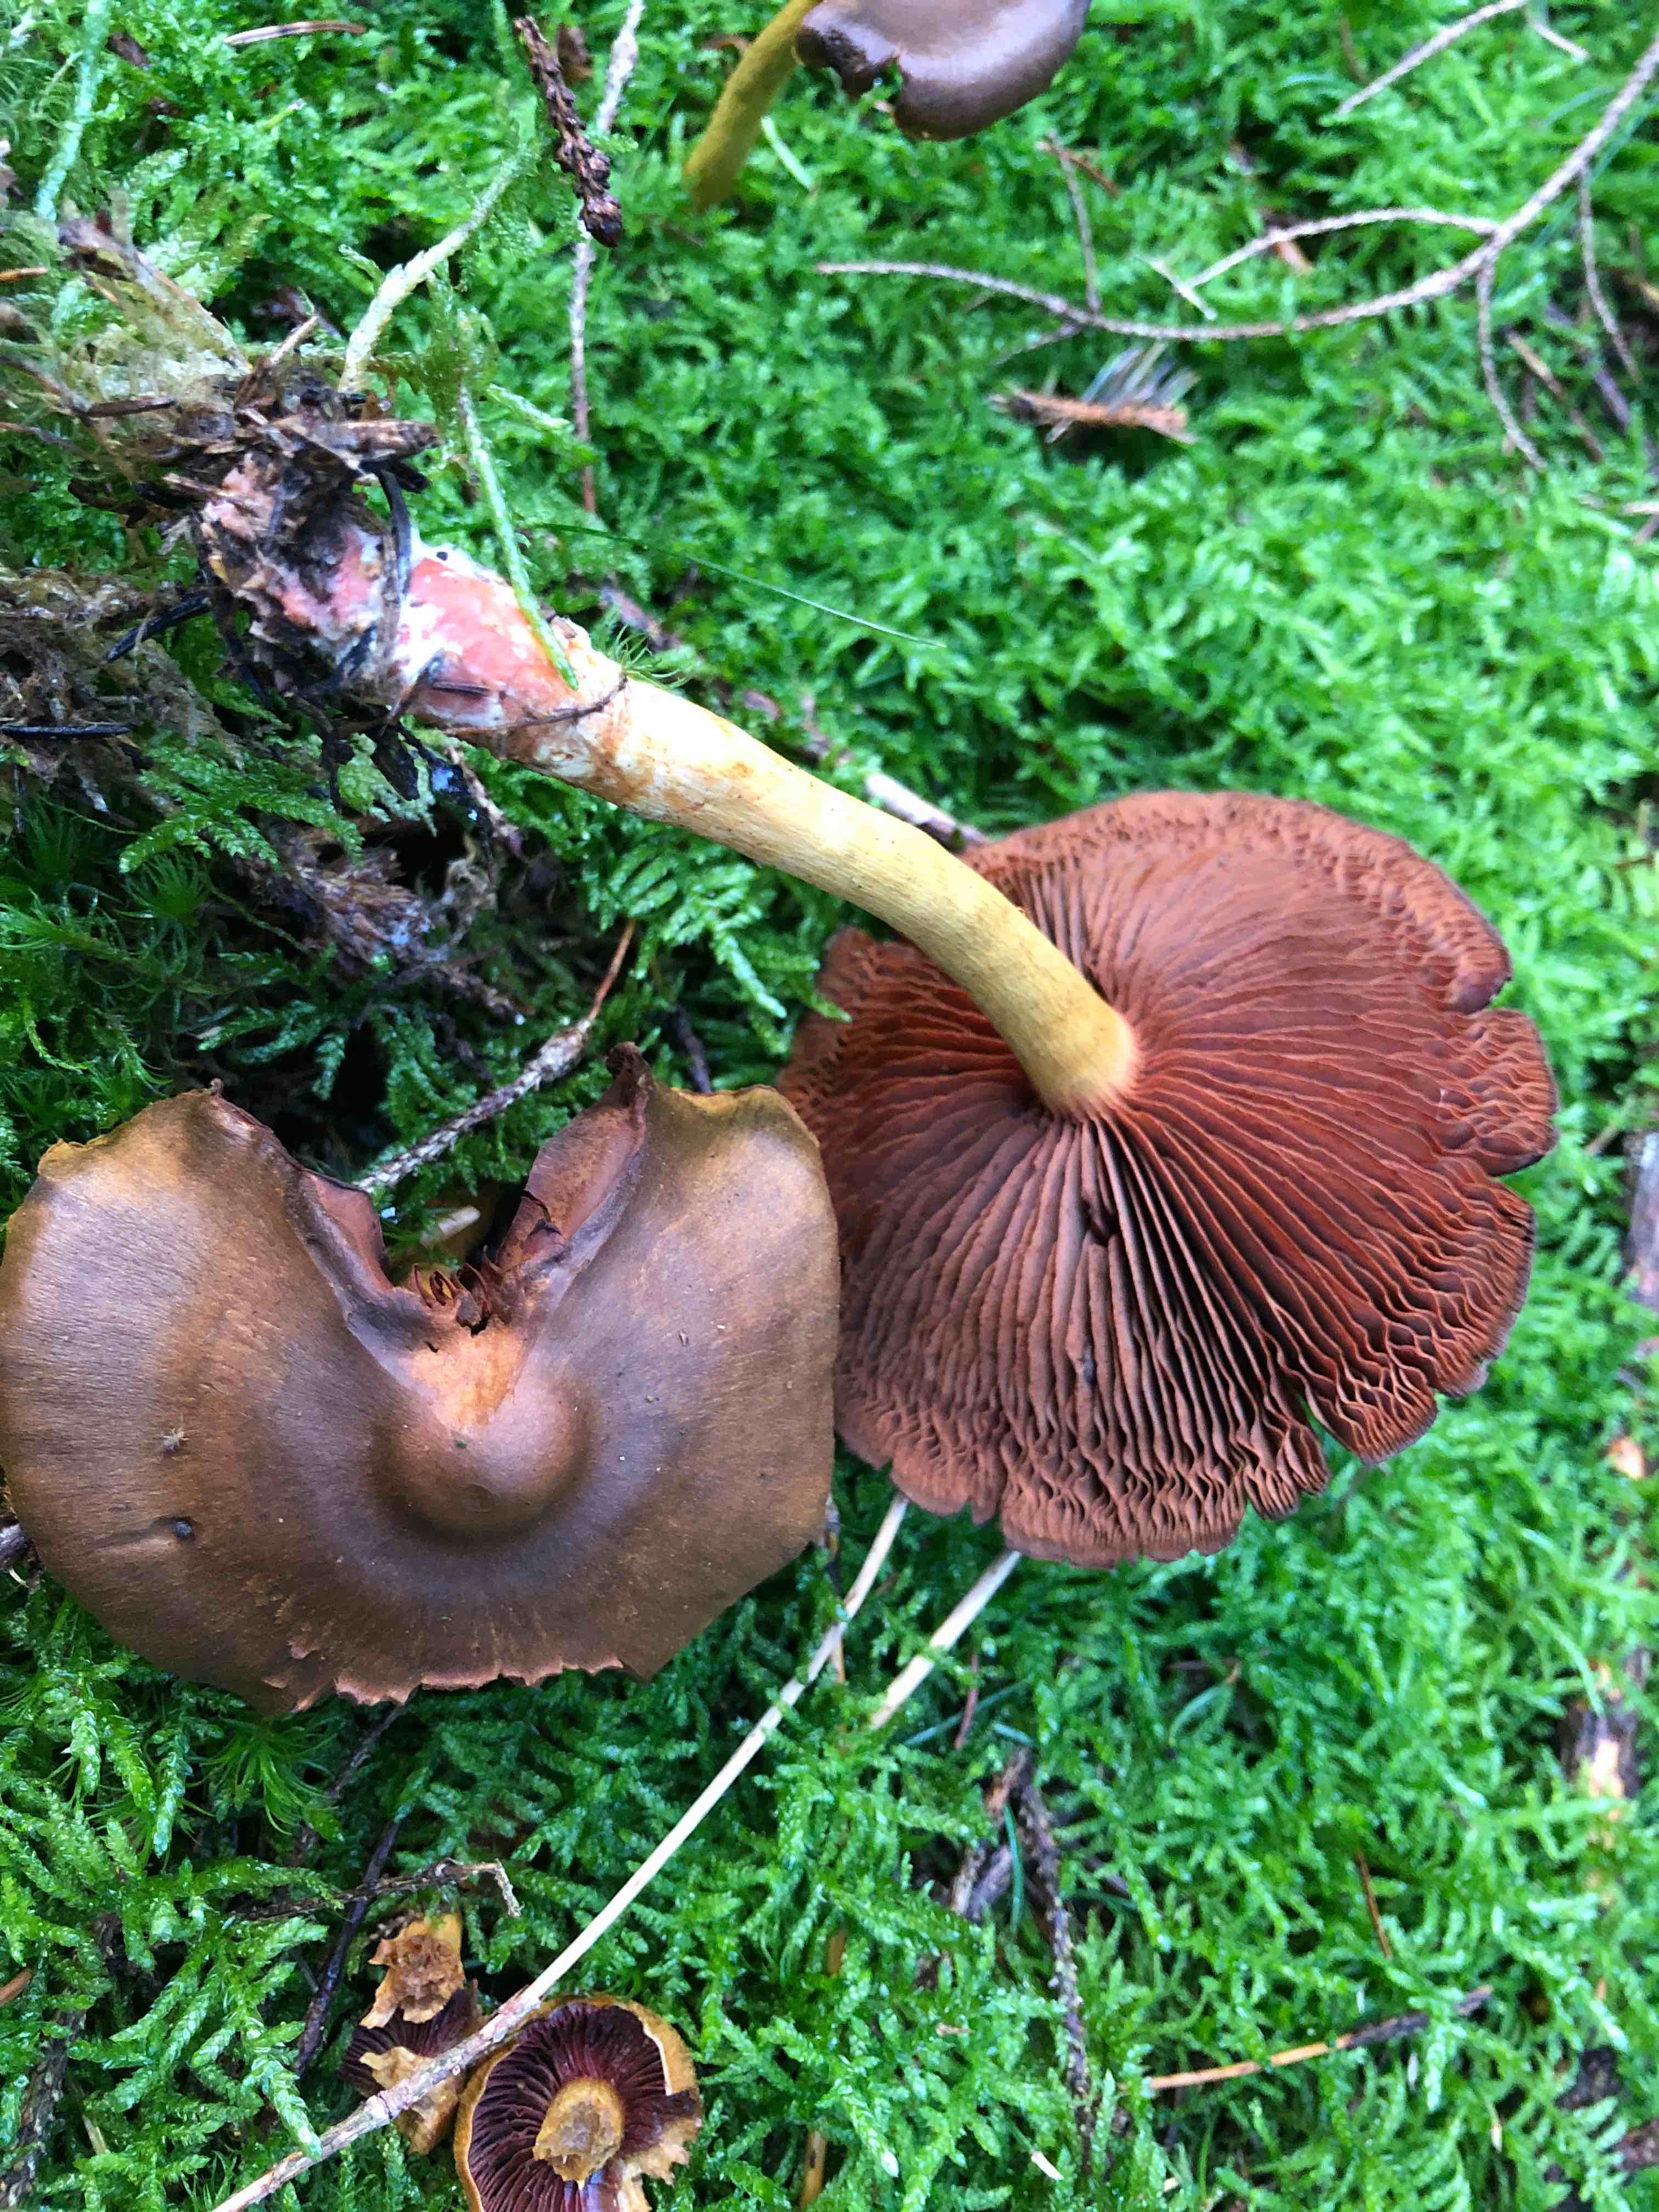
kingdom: Fungi
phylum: Basidiomycota
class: Agaricomycetes
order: Agaricales
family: Cortinariaceae
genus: Cortinarius
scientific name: Cortinarius
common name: cinnoberbladet slørhat
